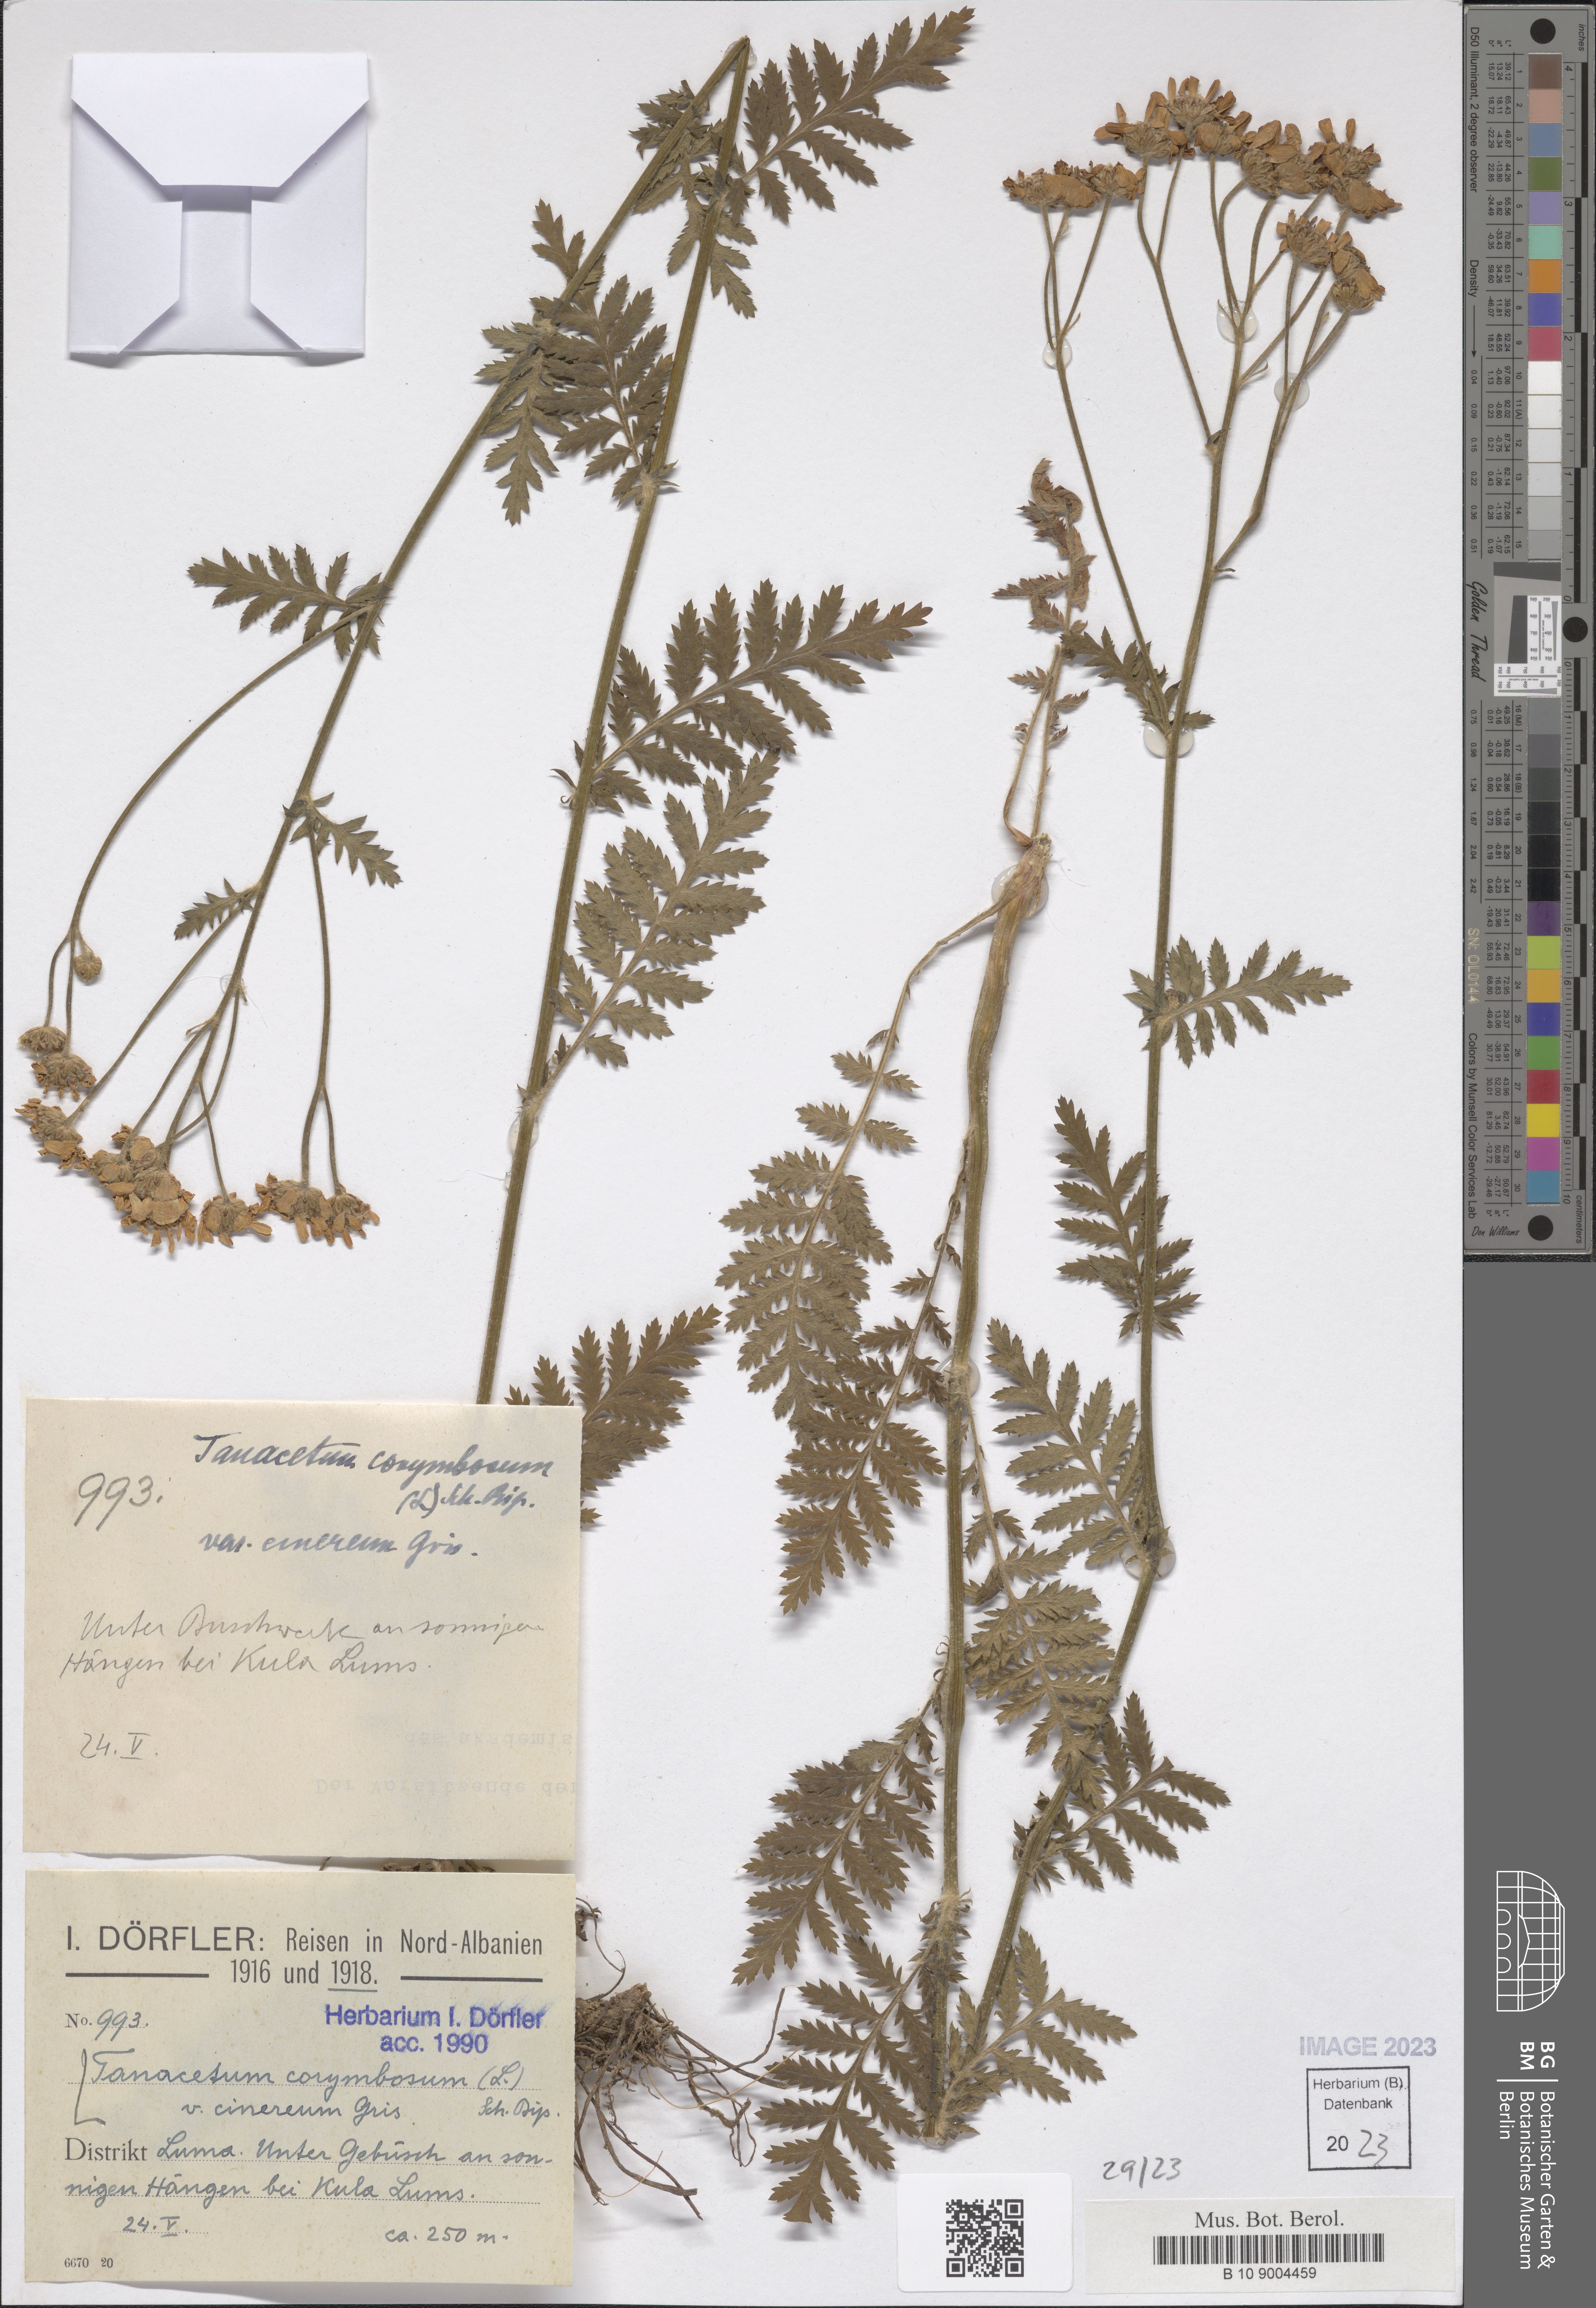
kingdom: Plantae
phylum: Tracheophyta
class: Magnoliopsida
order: Asterales
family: Asteraceae
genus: Tanacetum
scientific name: Tanacetum corymbosum
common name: Scentless feverfew
